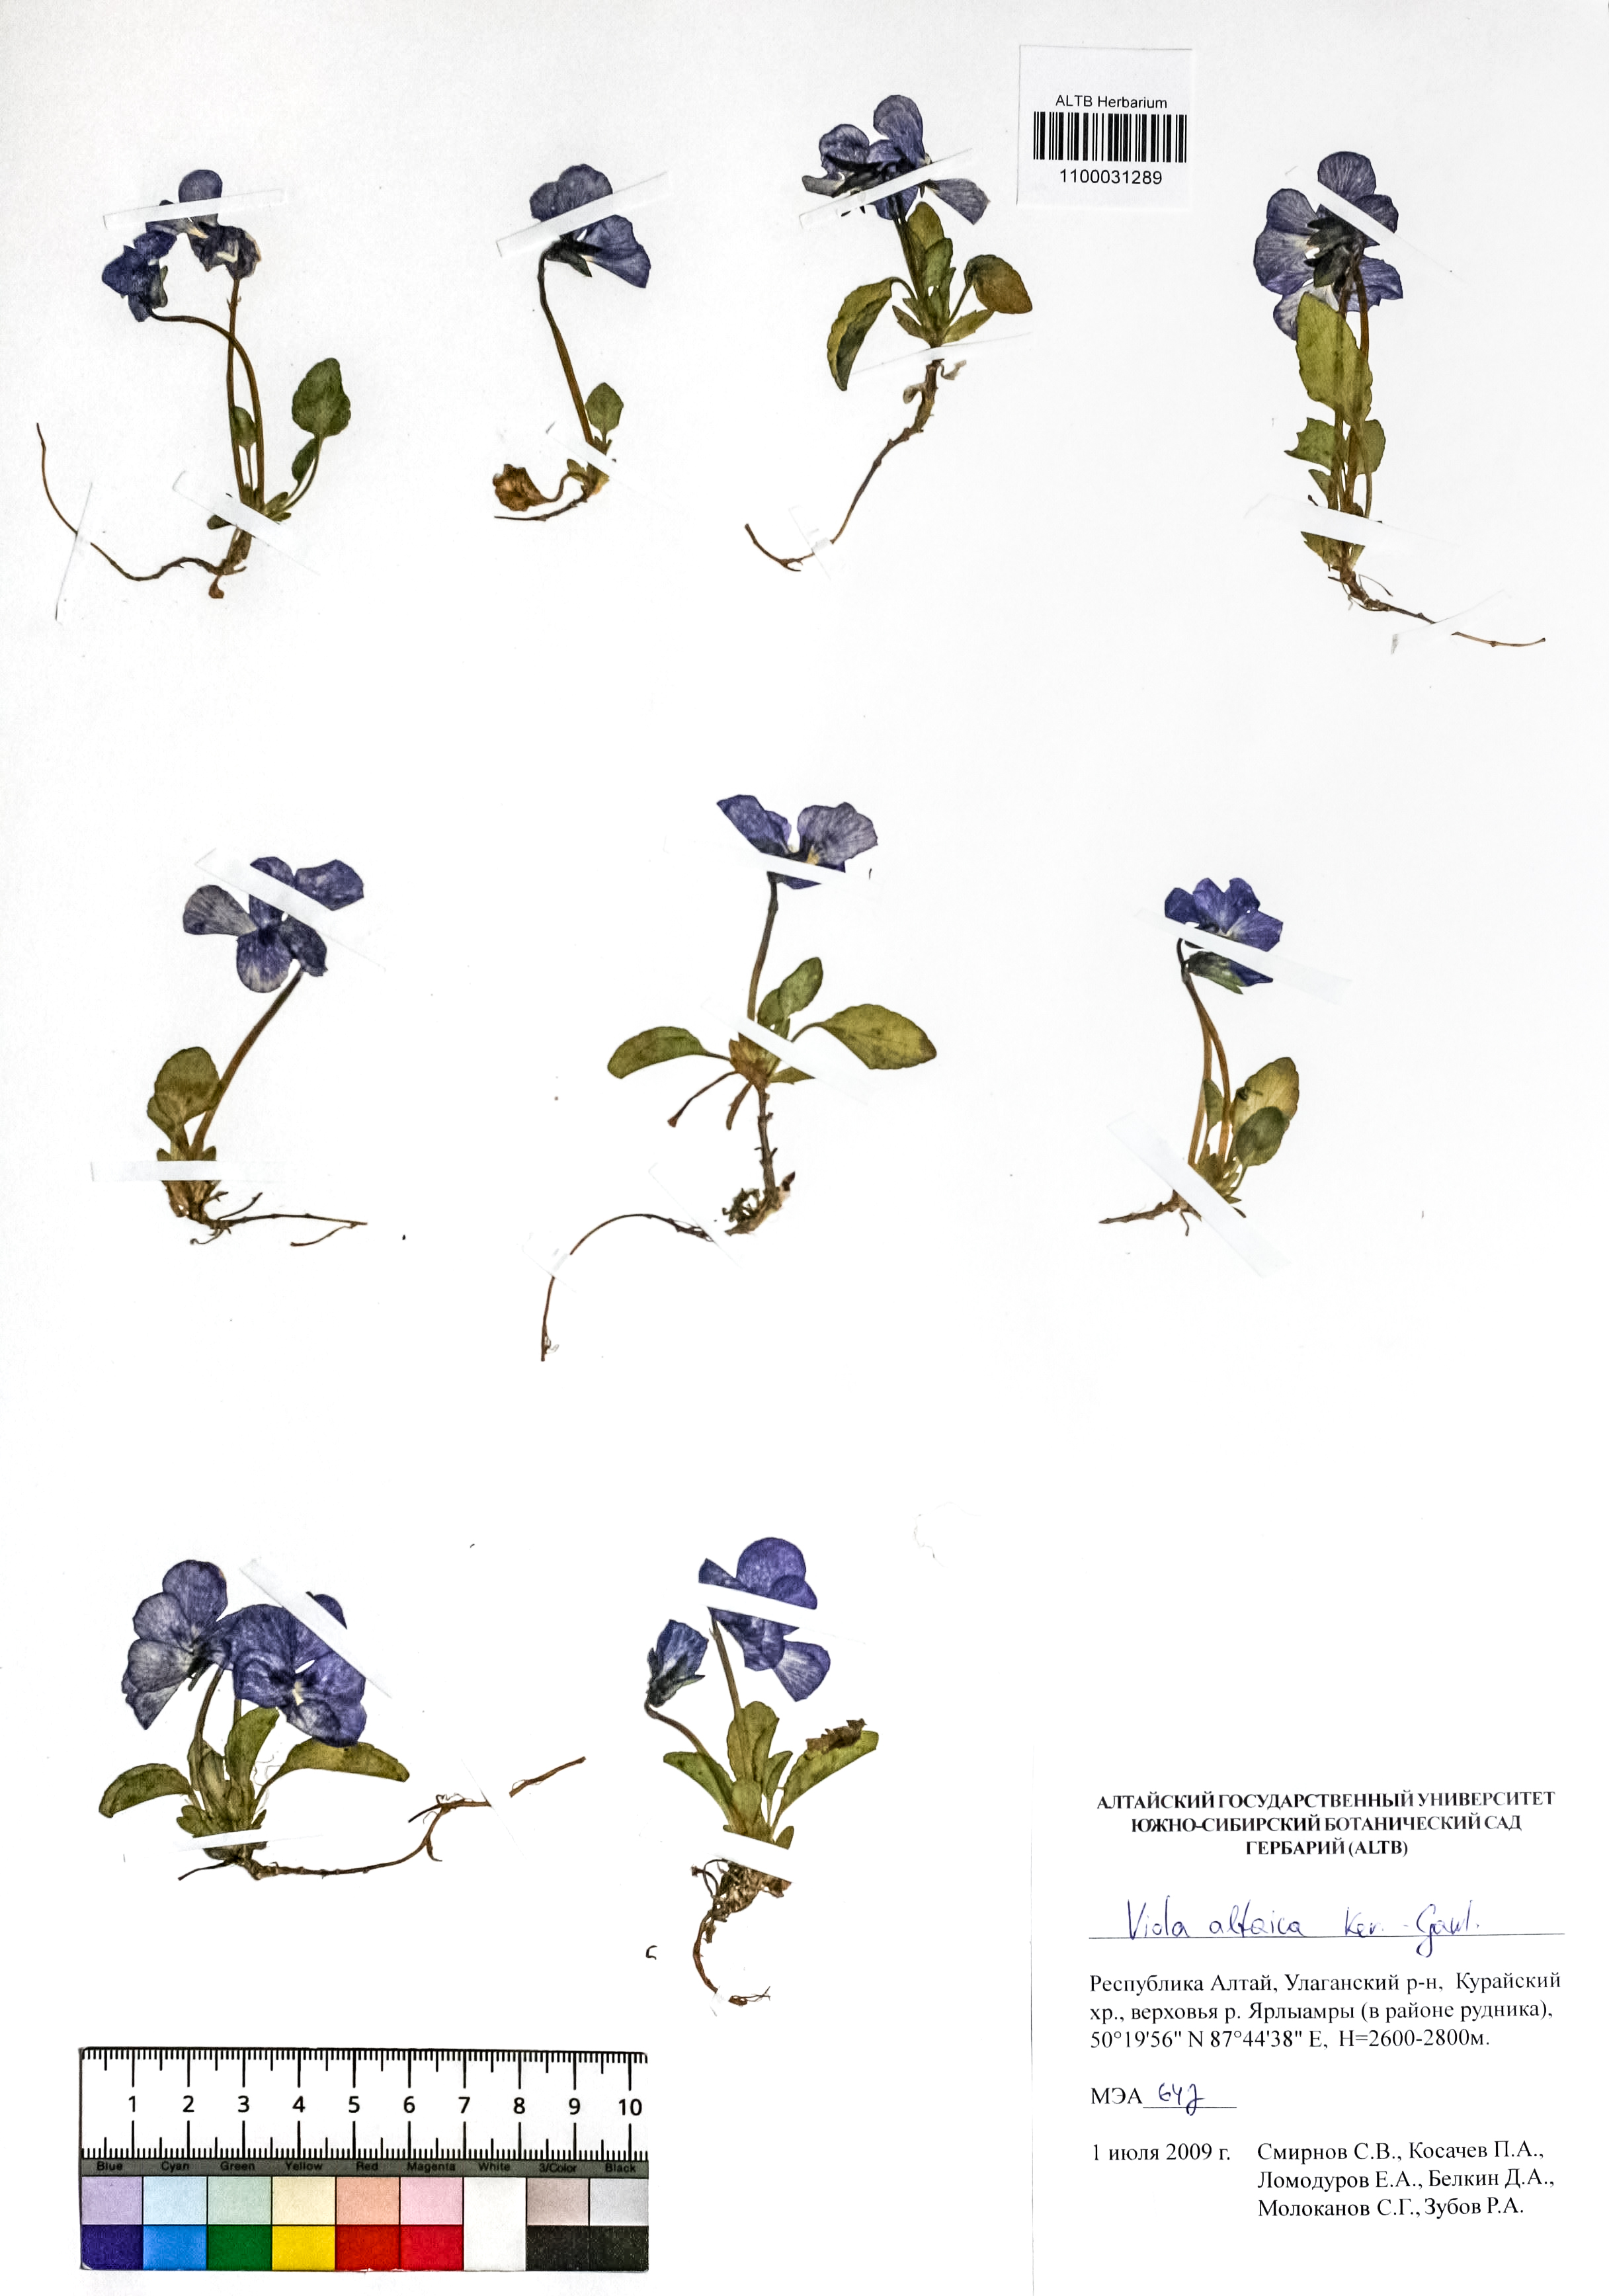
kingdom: Plantae
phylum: Tracheophyta
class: Magnoliopsida
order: Malpighiales
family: Violaceae
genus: Viola
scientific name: Viola altaica
